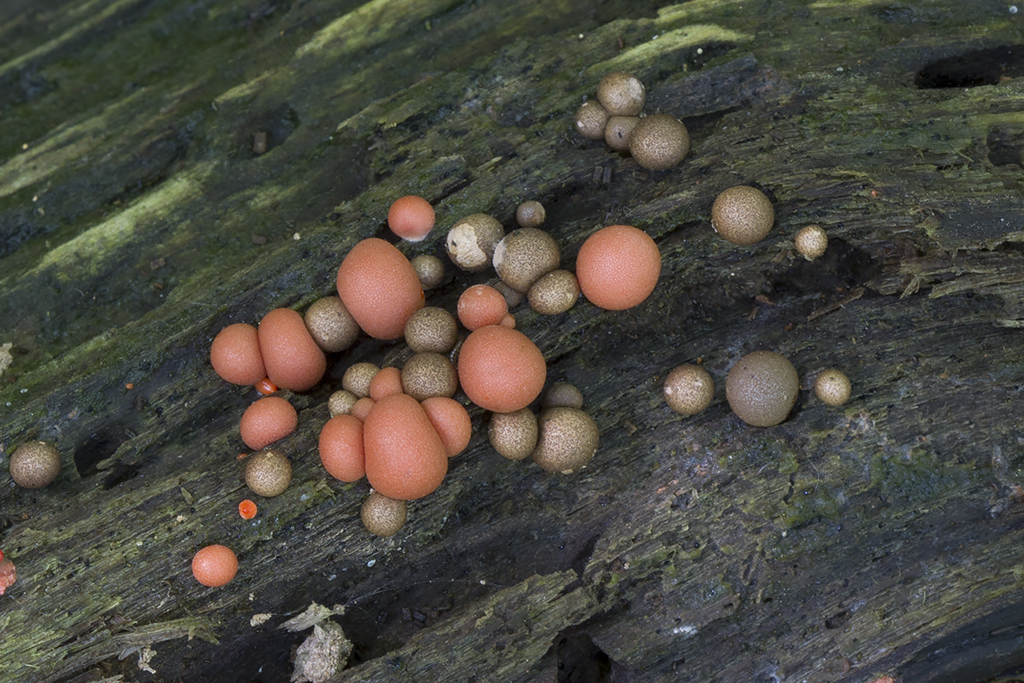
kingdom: Protozoa
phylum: Mycetozoa
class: Myxomycetes
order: Cribrariales
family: Tubiferaceae
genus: Lycogala
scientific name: Lycogala epidendrum
